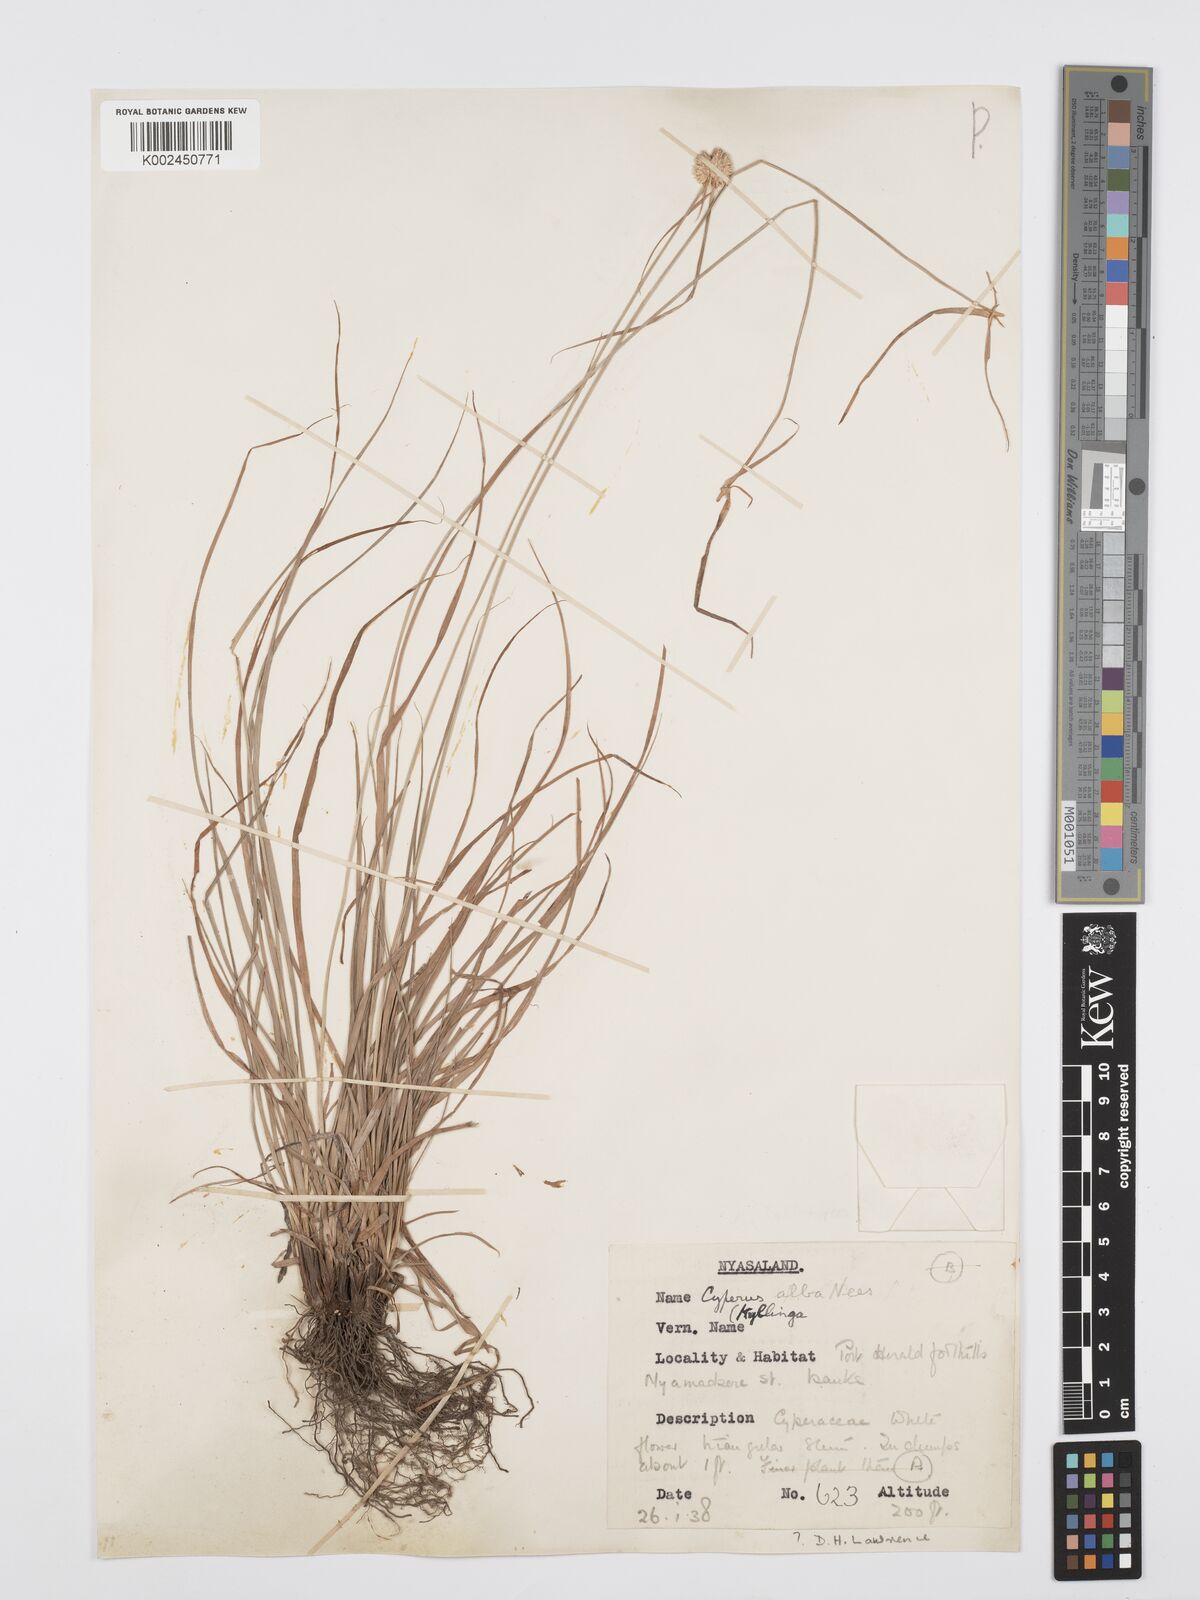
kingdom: Plantae
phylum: Tracheophyta
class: Liliopsida
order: Poales
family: Cyperaceae
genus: Cyperus
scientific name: Cyperus rukwanus
